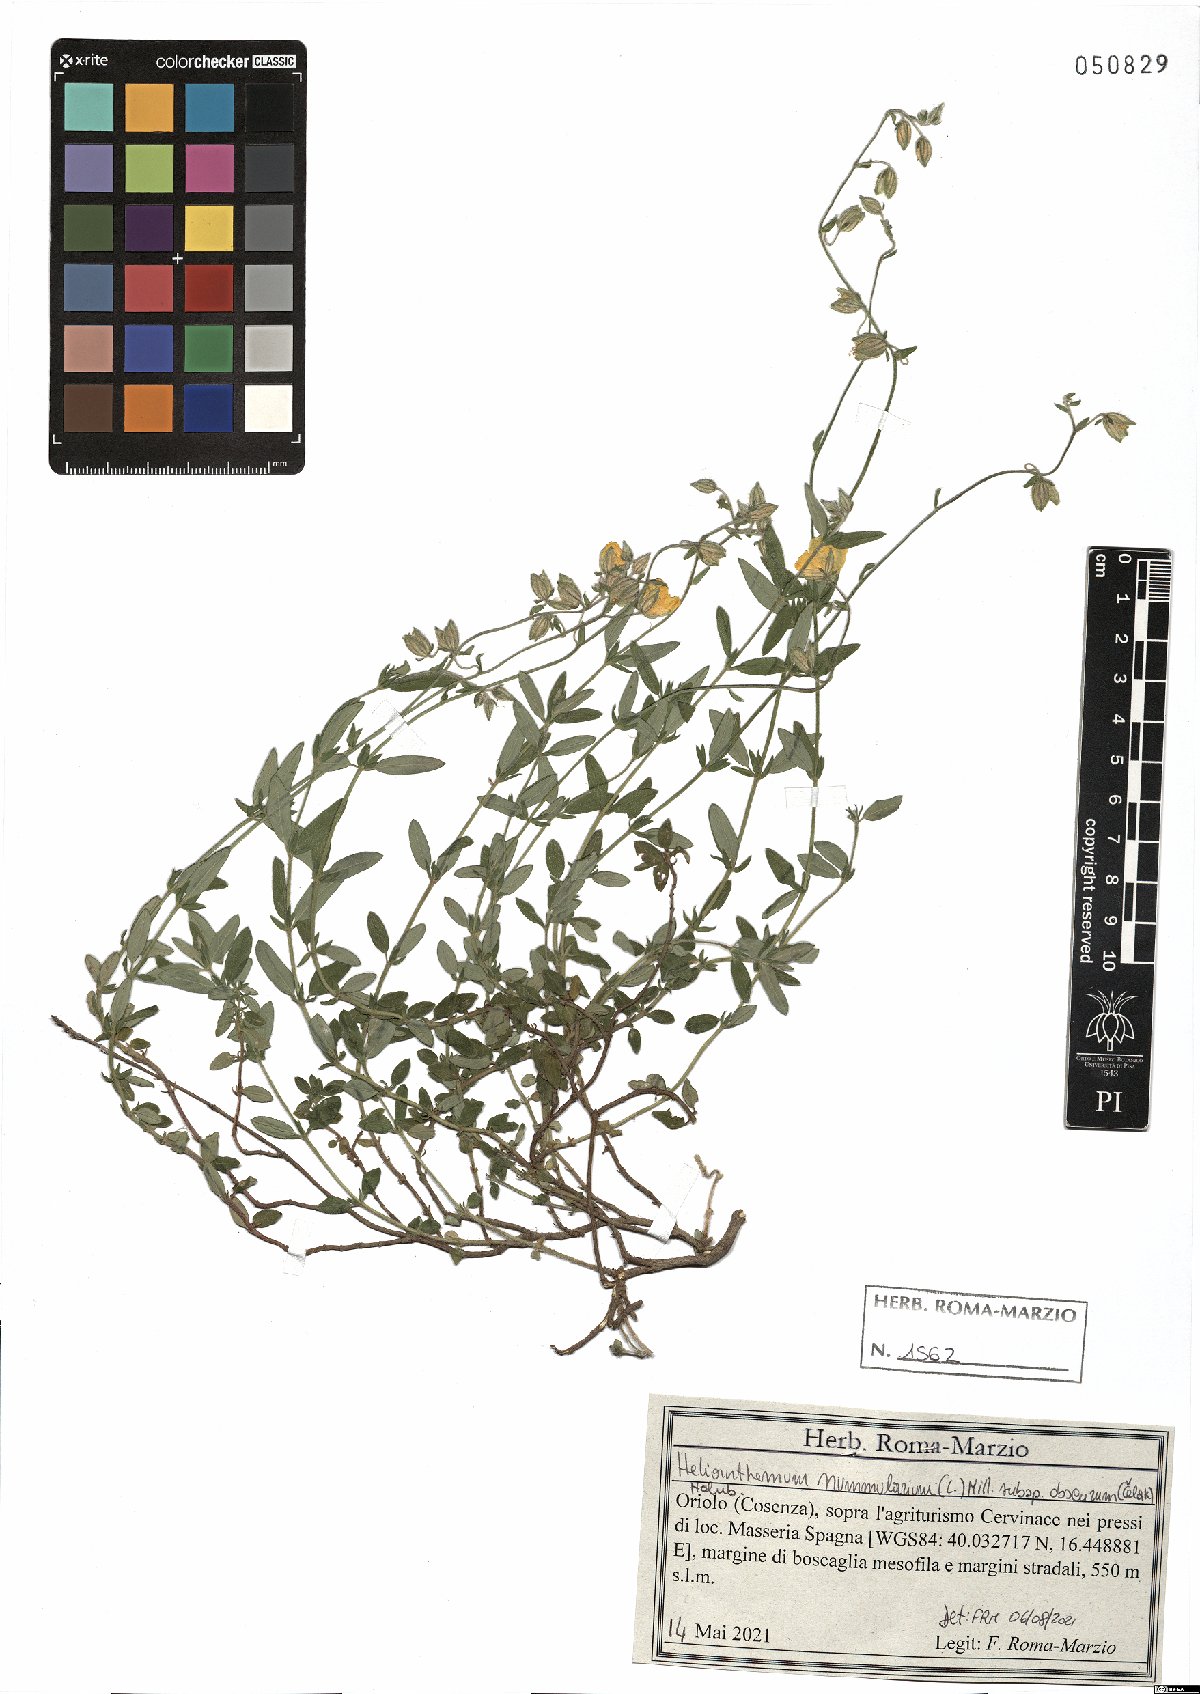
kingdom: Plantae
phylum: Tracheophyta
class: Magnoliopsida
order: Malvales
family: Cistaceae
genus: Helianthemum
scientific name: Helianthemum nummularium
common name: Common rock-rose
